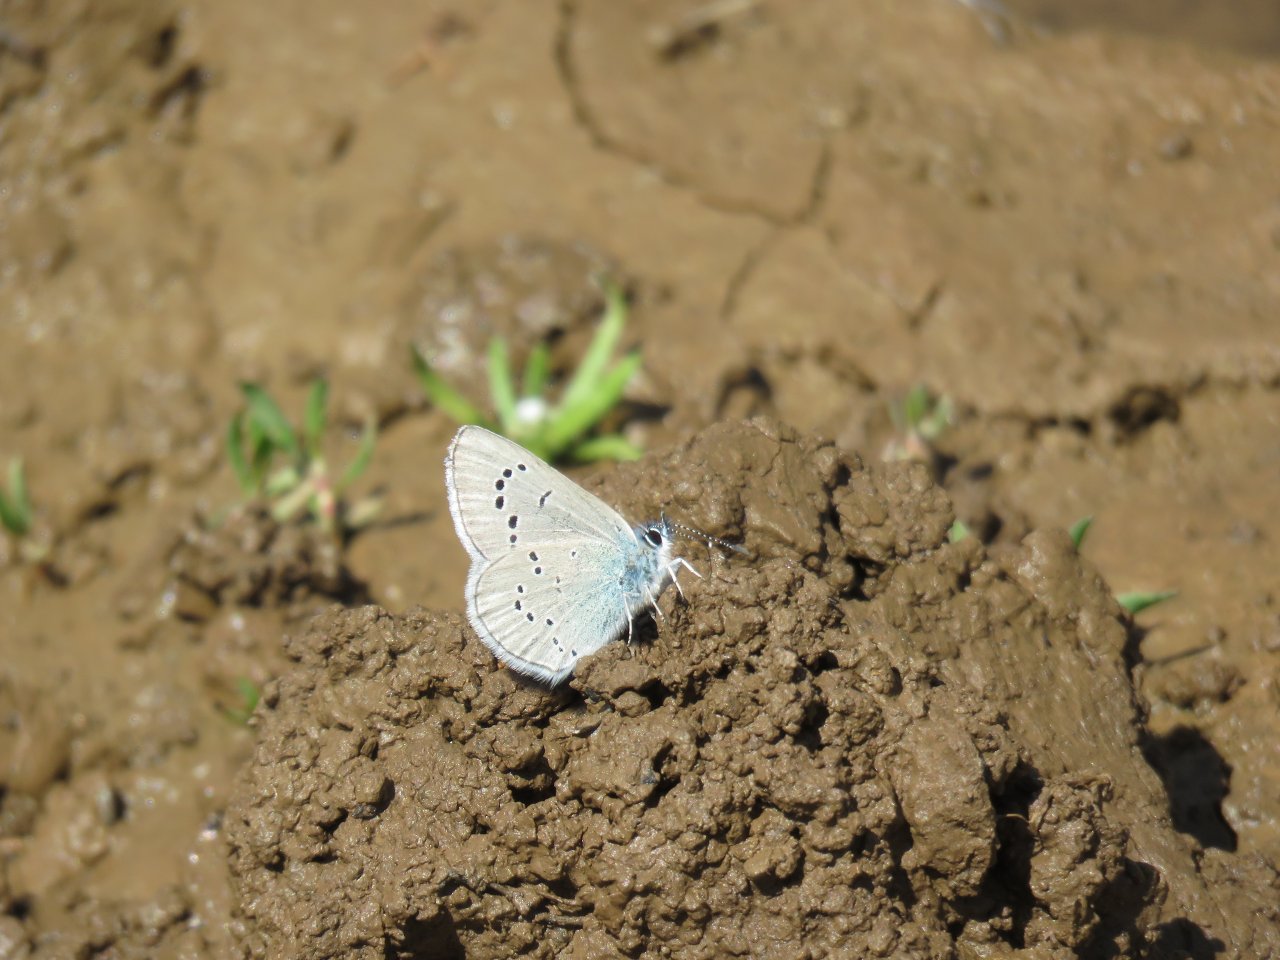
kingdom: Animalia
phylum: Arthropoda
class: Insecta
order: Lepidoptera
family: Lycaenidae
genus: Glaucopsyche
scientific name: Glaucopsyche lygdamus
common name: Silvery Blue
